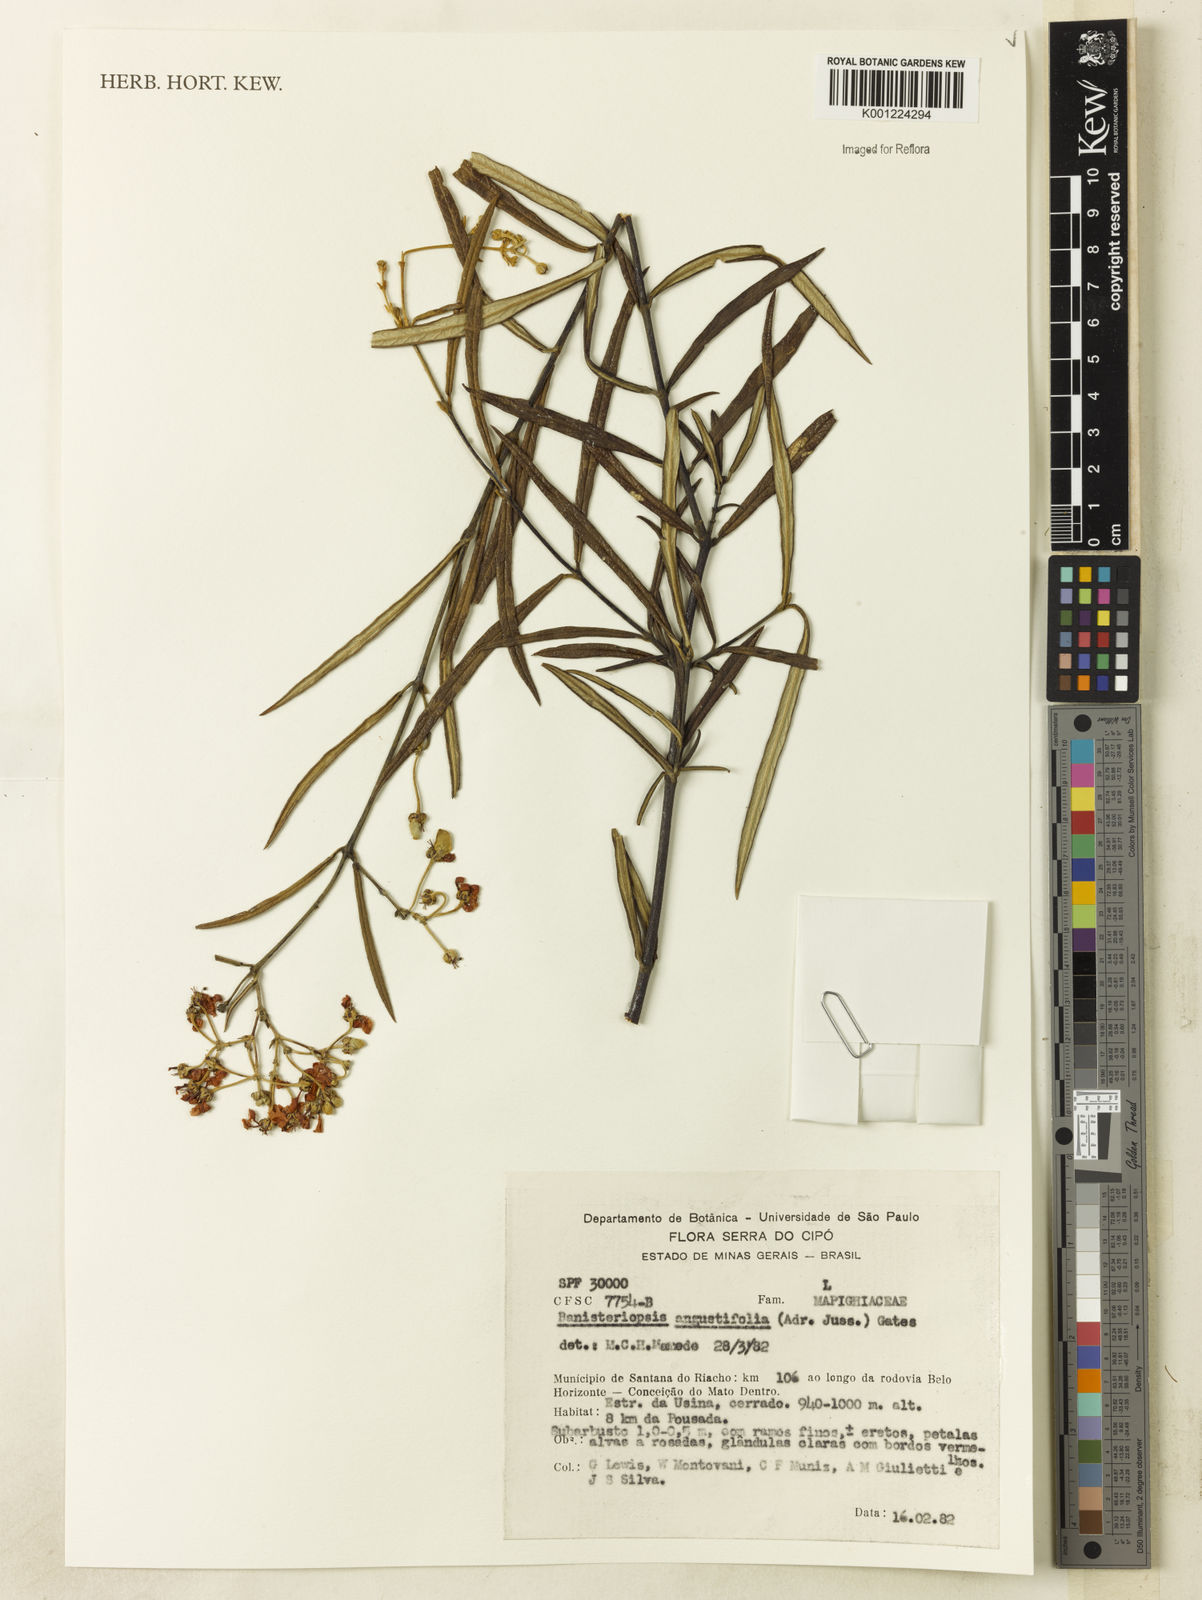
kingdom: Plantae
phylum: Tracheophyta
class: Magnoliopsida
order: Malpighiales
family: Malpighiaceae
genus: Banisteriopsis
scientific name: Banisteriopsis angustifolia
